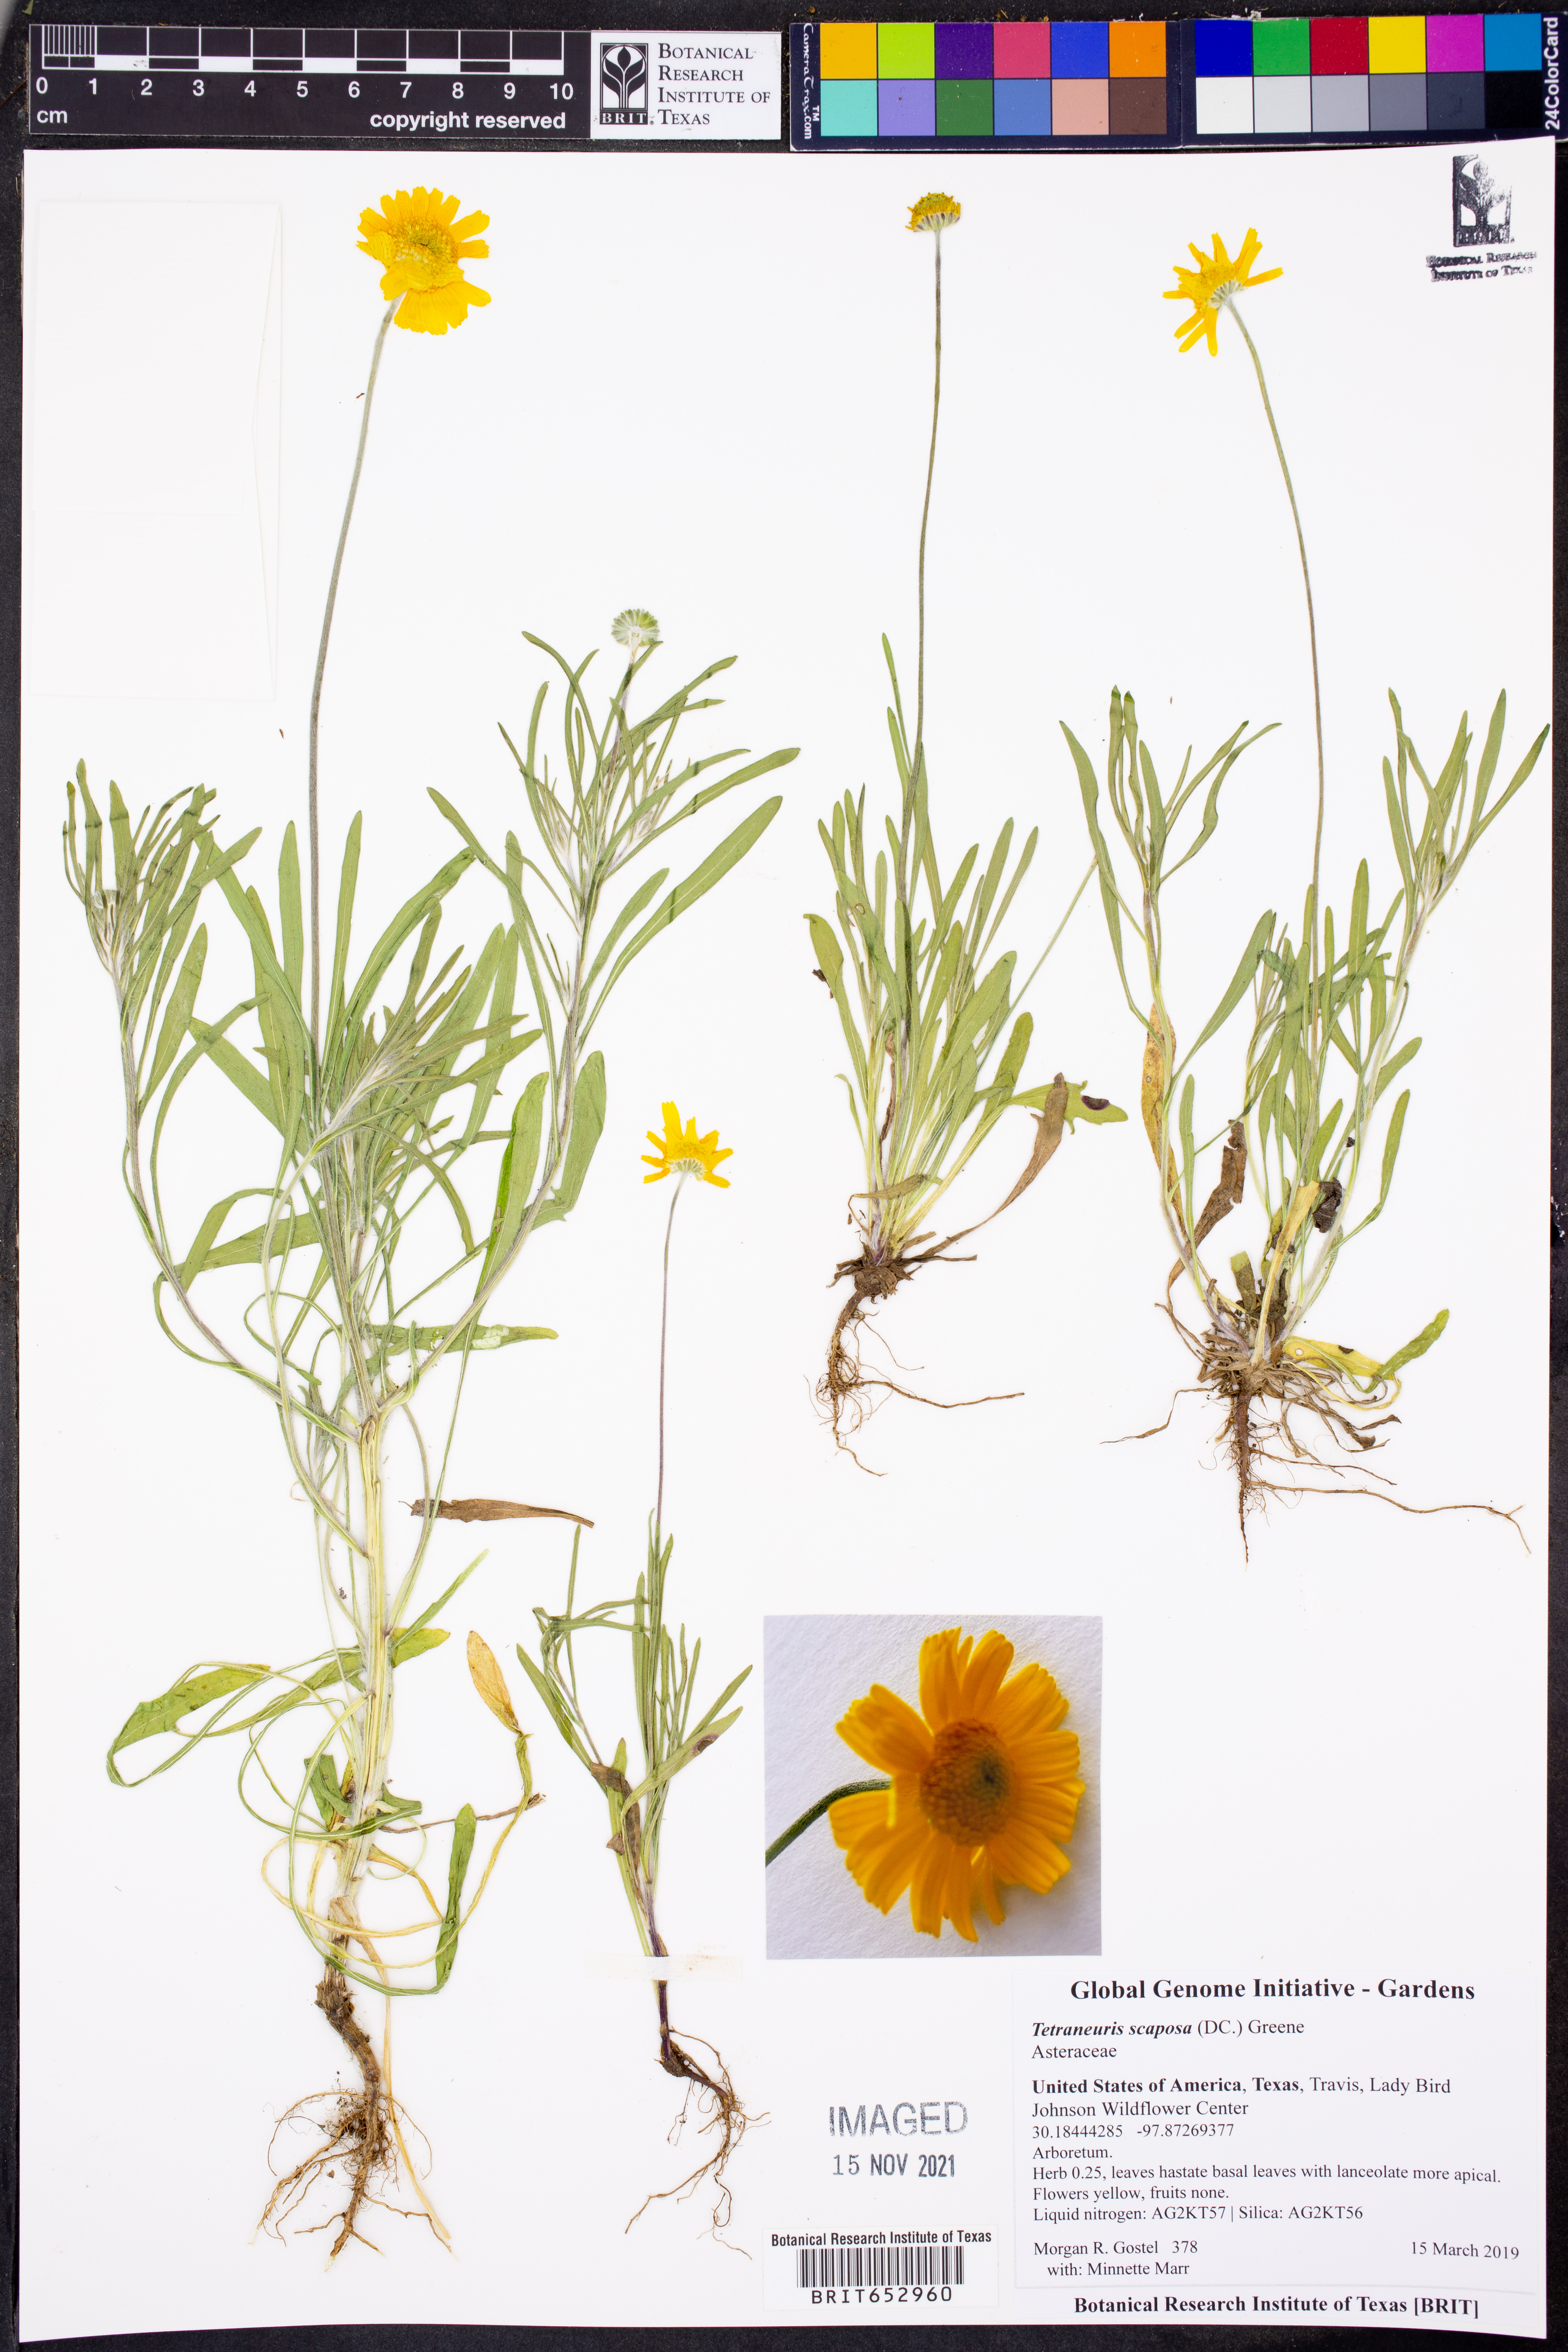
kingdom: Plantae
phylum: Tracheophyta
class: Magnoliopsida
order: Asterales
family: Asteraceae
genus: Tetraneuris
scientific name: Tetraneuris scaposa
